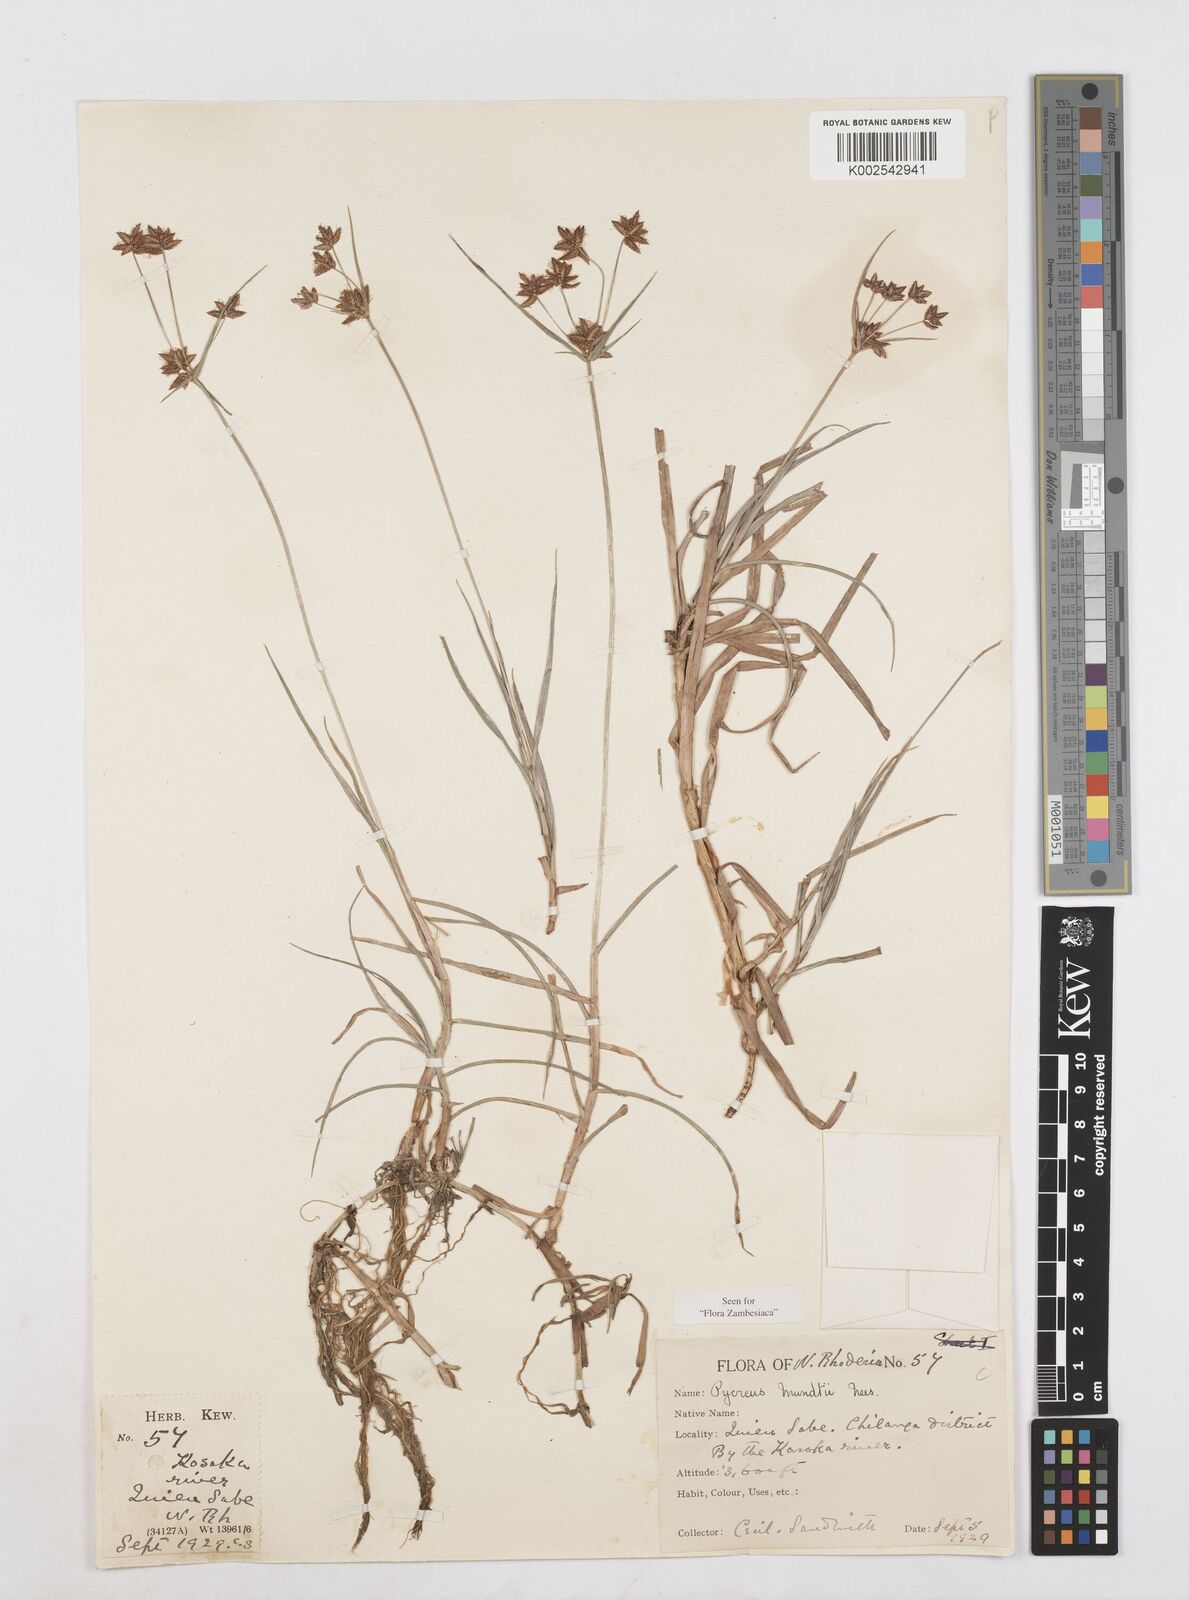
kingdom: Plantae
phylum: Tracheophyta
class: Liliopsida
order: Poales
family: Cyperaceae
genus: Cyperus
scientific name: Cyperus mundii
